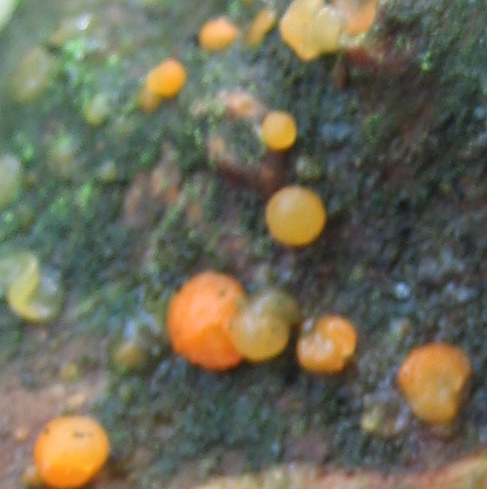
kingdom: Fungi
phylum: Basidiomycota
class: Dacrymycetes
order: Dacrymycetales
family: Dacrymycetaceae
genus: Dacrymyces
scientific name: Dacrymyces stillatus
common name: almindelig tåresvamp
